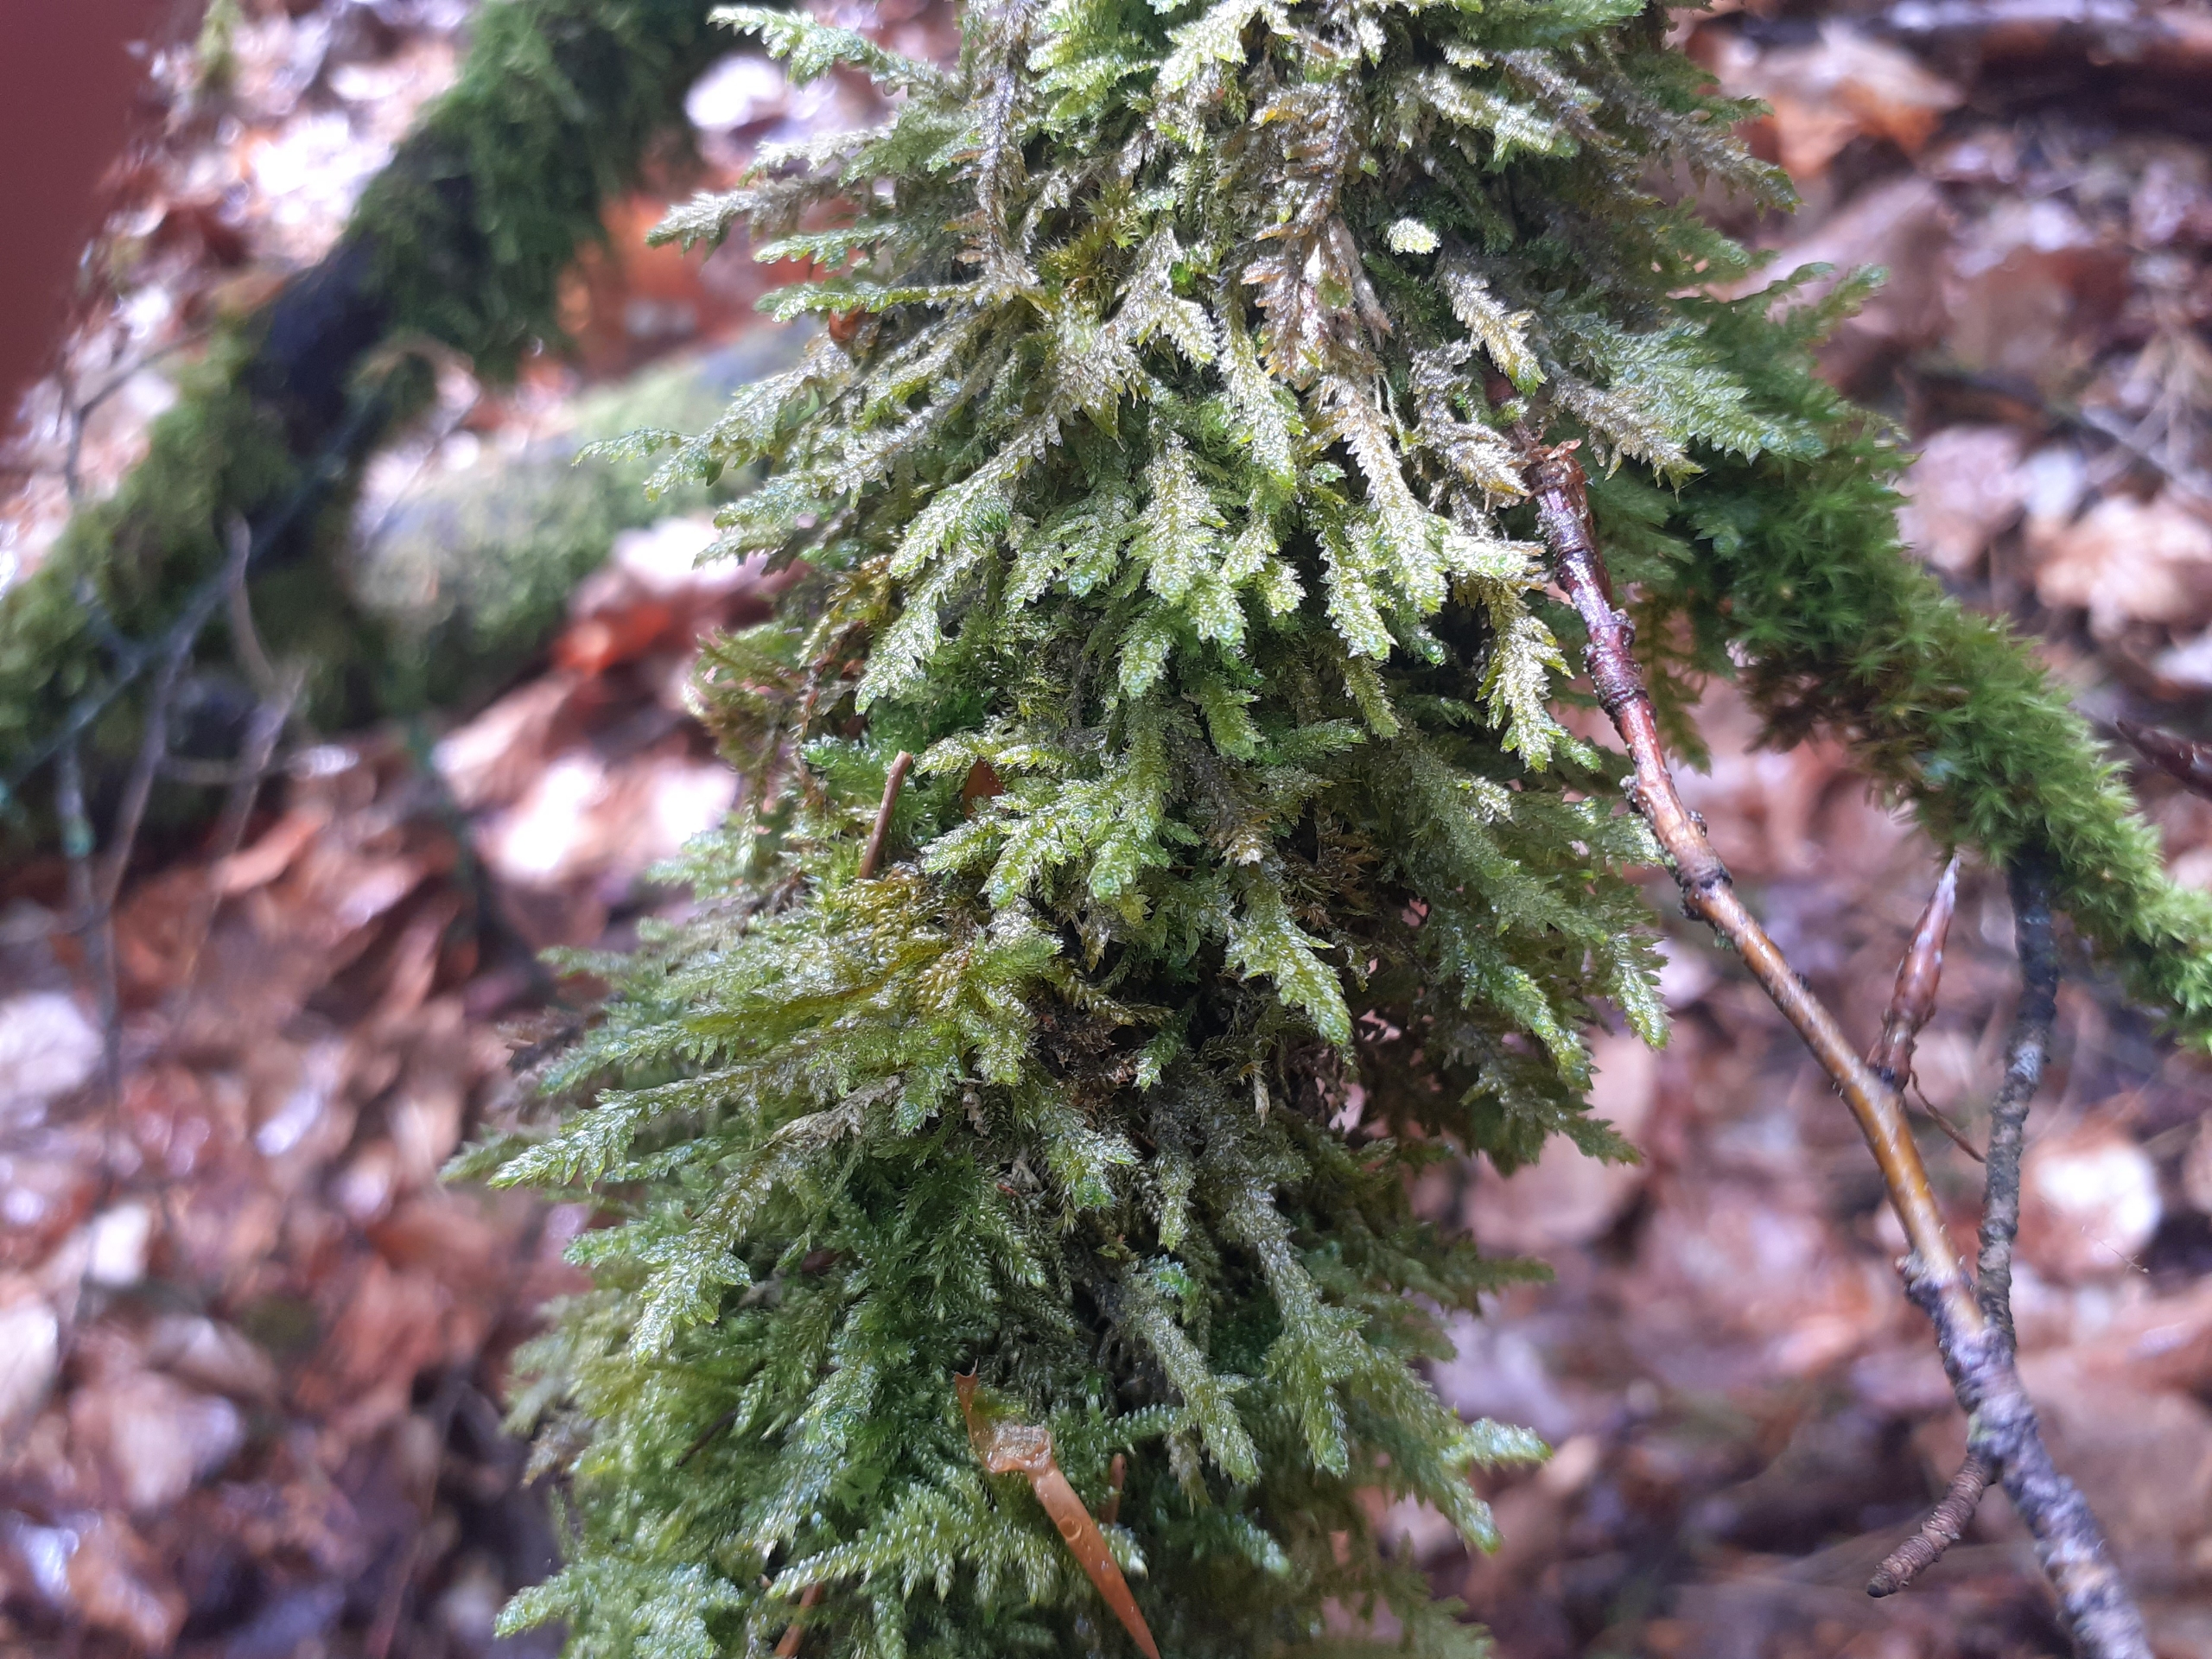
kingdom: Plantae
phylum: Bryophyta
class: Bryopsida
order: Hypnales
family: Neckeraceae
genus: Neckera
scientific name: Neckera pumila
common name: Lav fladmos
